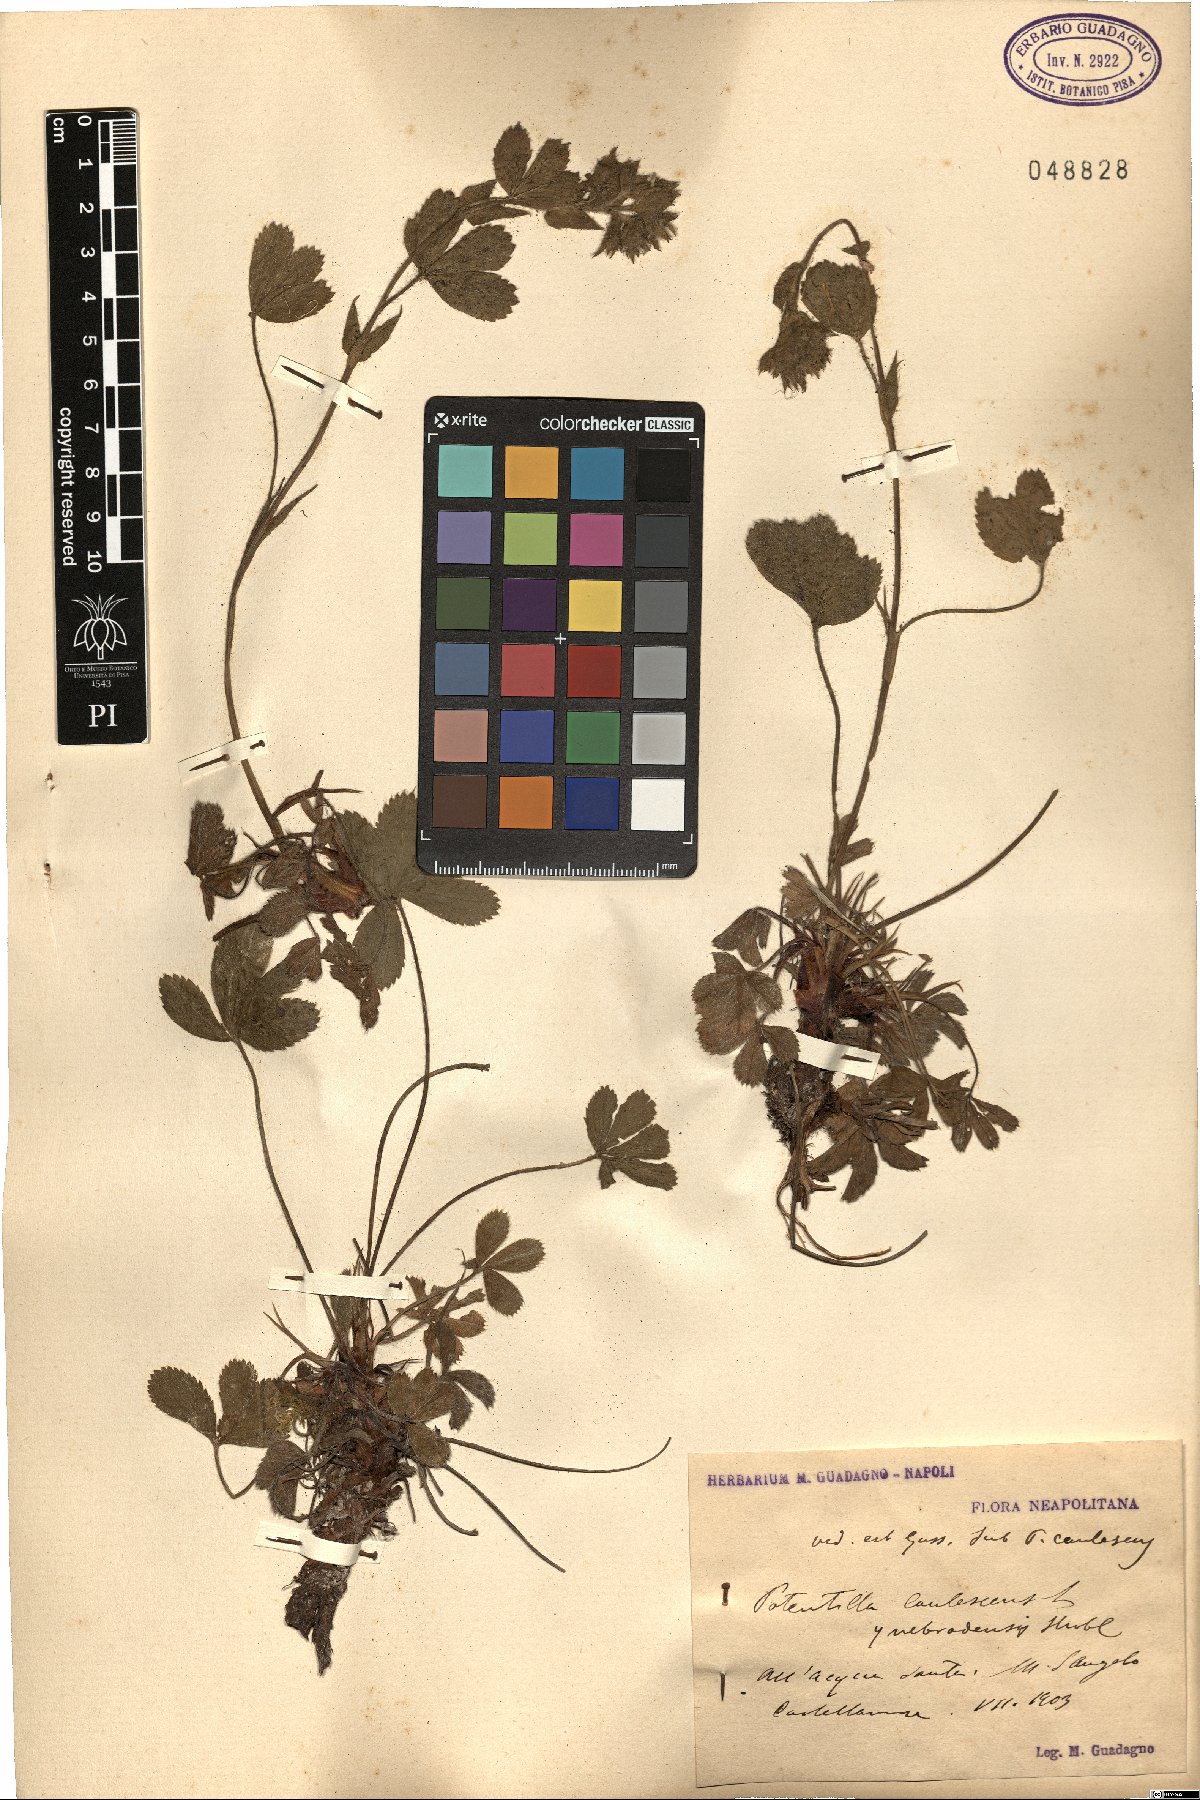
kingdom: Plantae
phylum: Tracheophyta
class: Magnoliopsida
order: Rosales
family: Rosaceae
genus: Potentilla
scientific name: Potentilla caulescens
